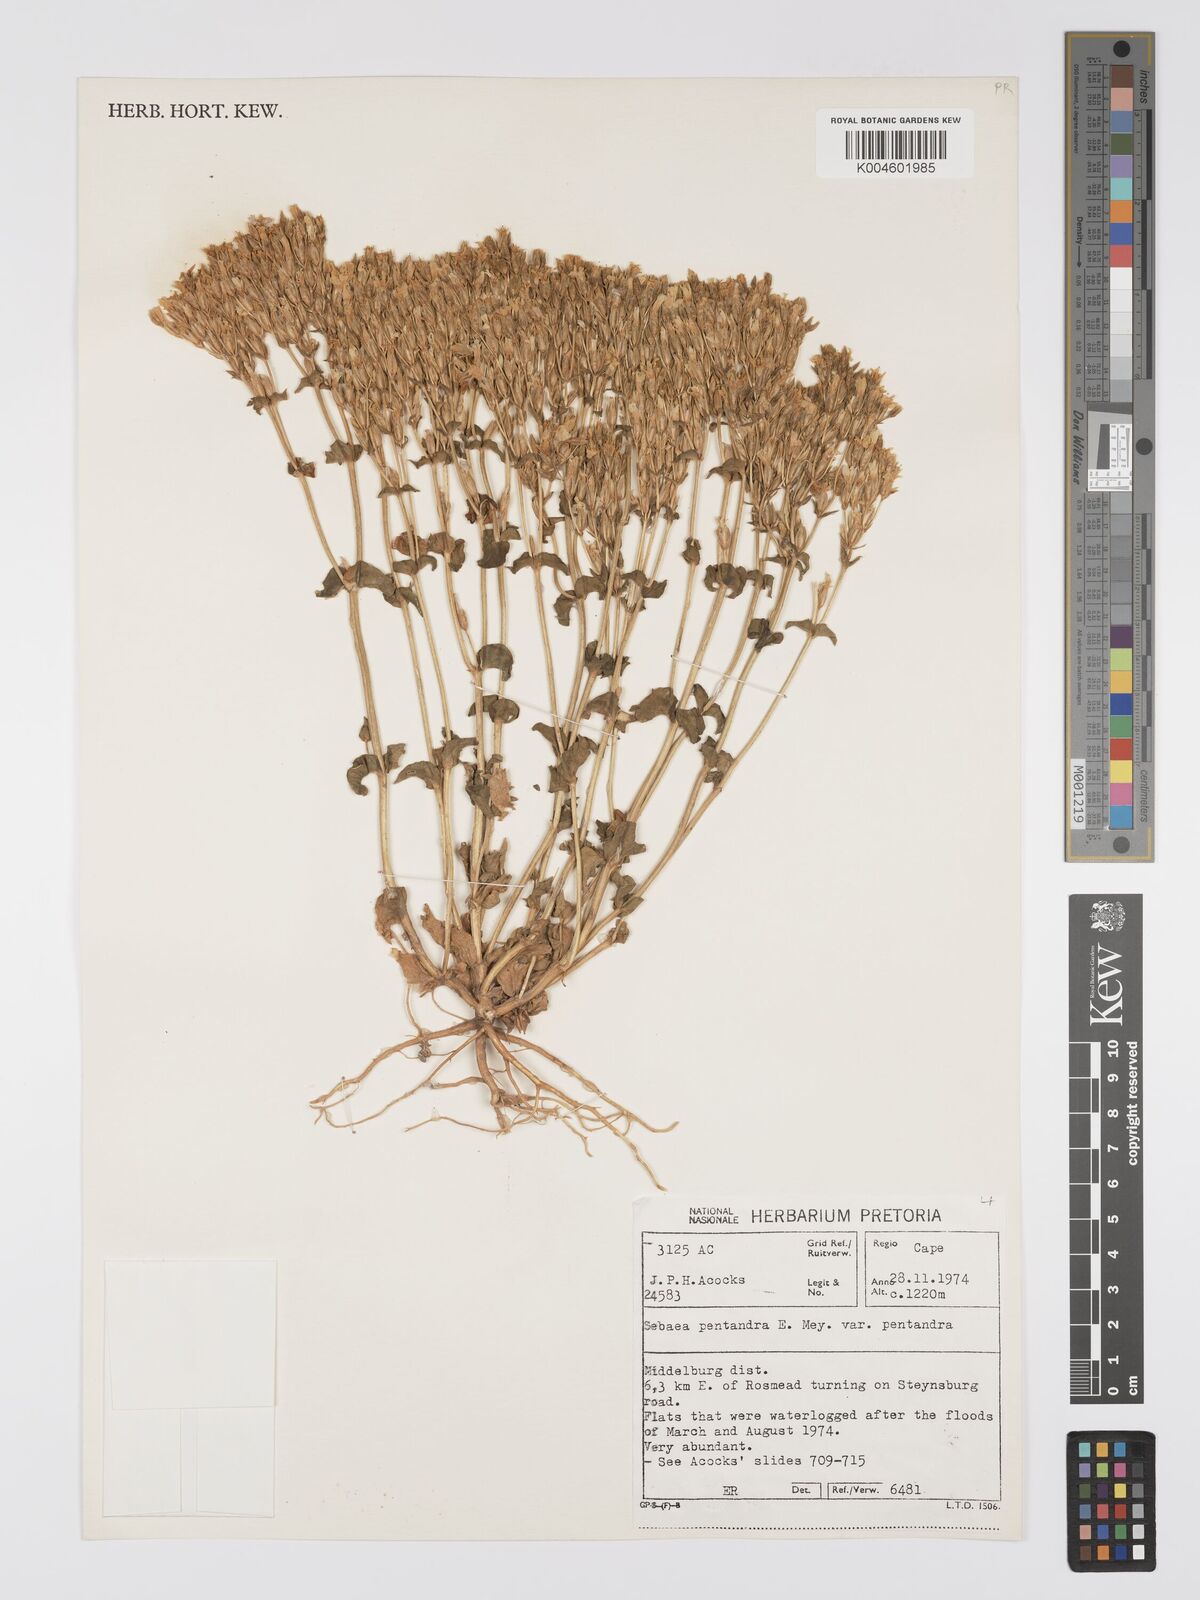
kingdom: Plantae
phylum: Tracheophyta
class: Magnoliopsida
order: Gentianales
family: Gentianaceae
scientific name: Gentianaceae
